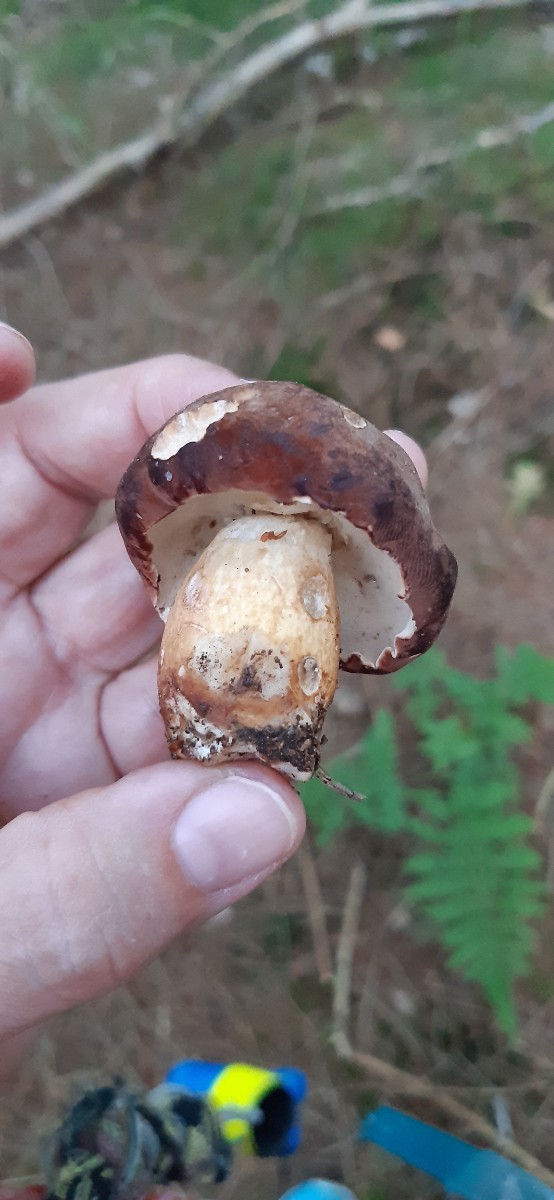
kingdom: Fungi
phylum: Basidiomycota
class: Agaricomycetes
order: Boletales
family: Boletaceae
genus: Imleria
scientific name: Imleria badia
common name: brunstokket rørhat
